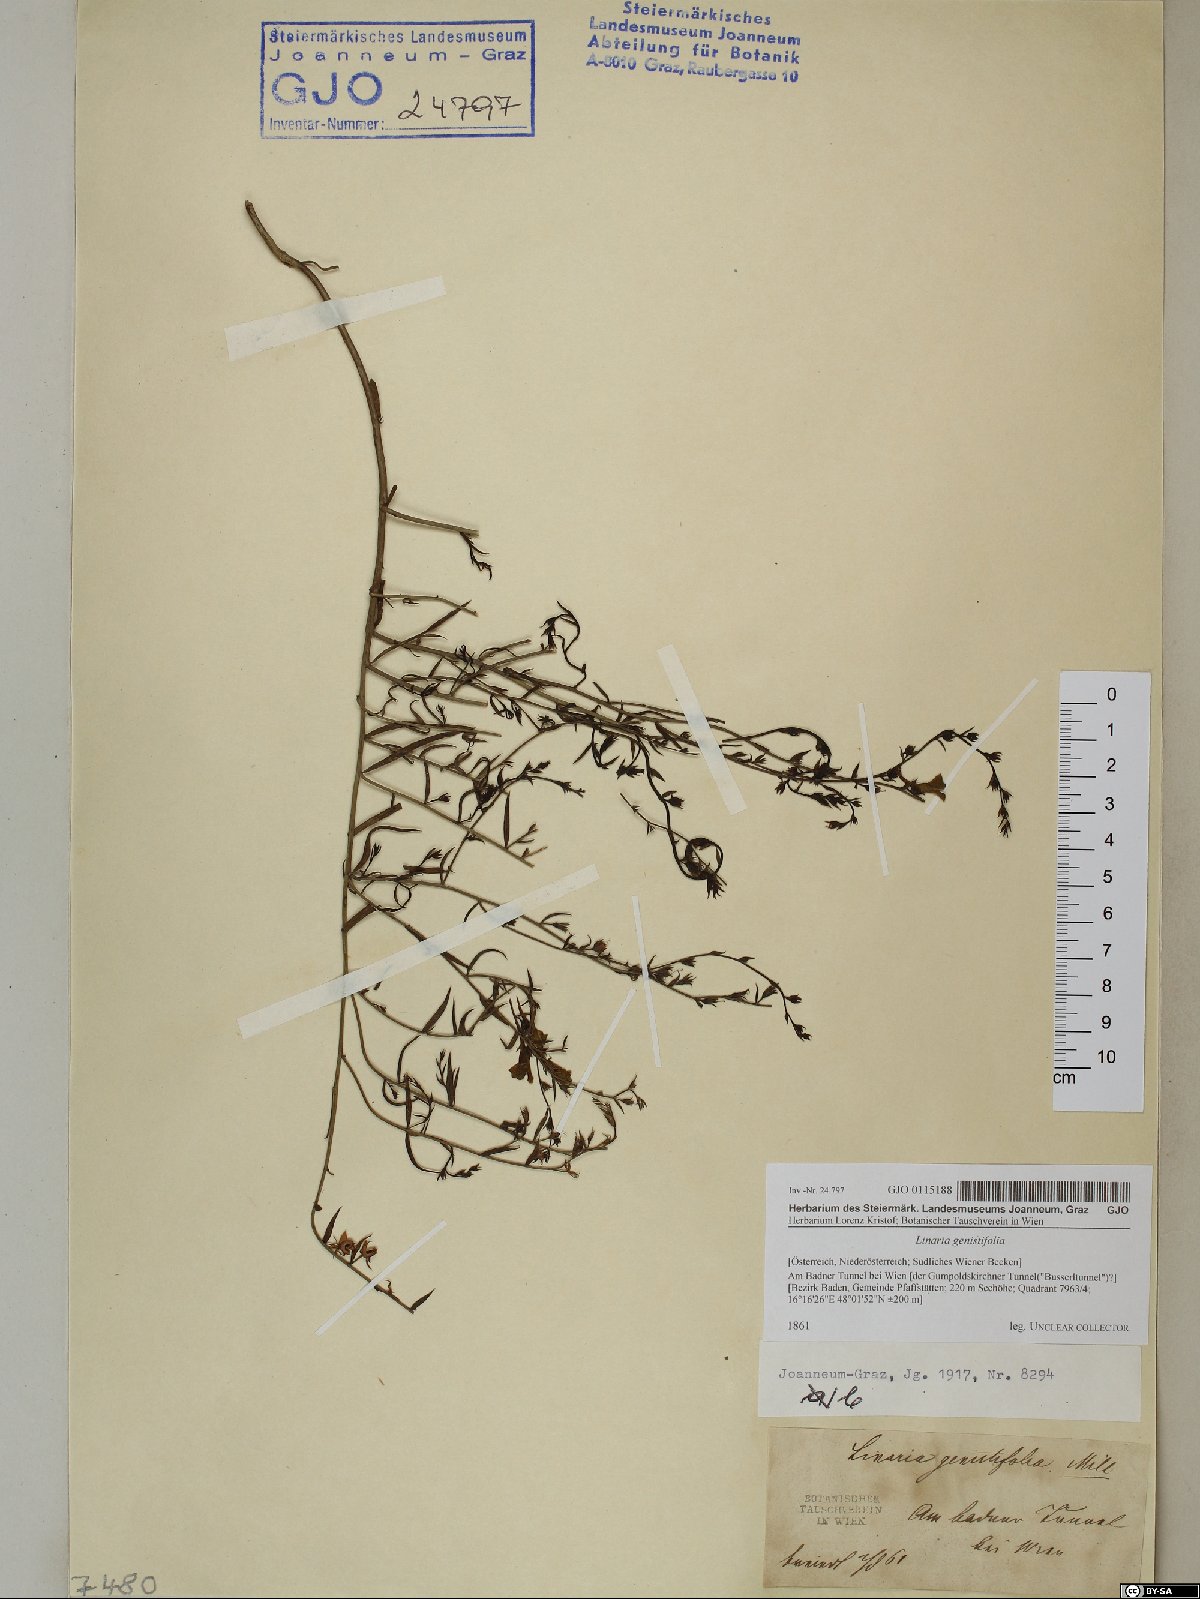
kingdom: Plantae
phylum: Tracheophyta
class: Magnoliopsida
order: Lamiales
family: Plantaginaceae
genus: Linaria
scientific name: Linaria genistifolia
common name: Broomleaf toadflax
